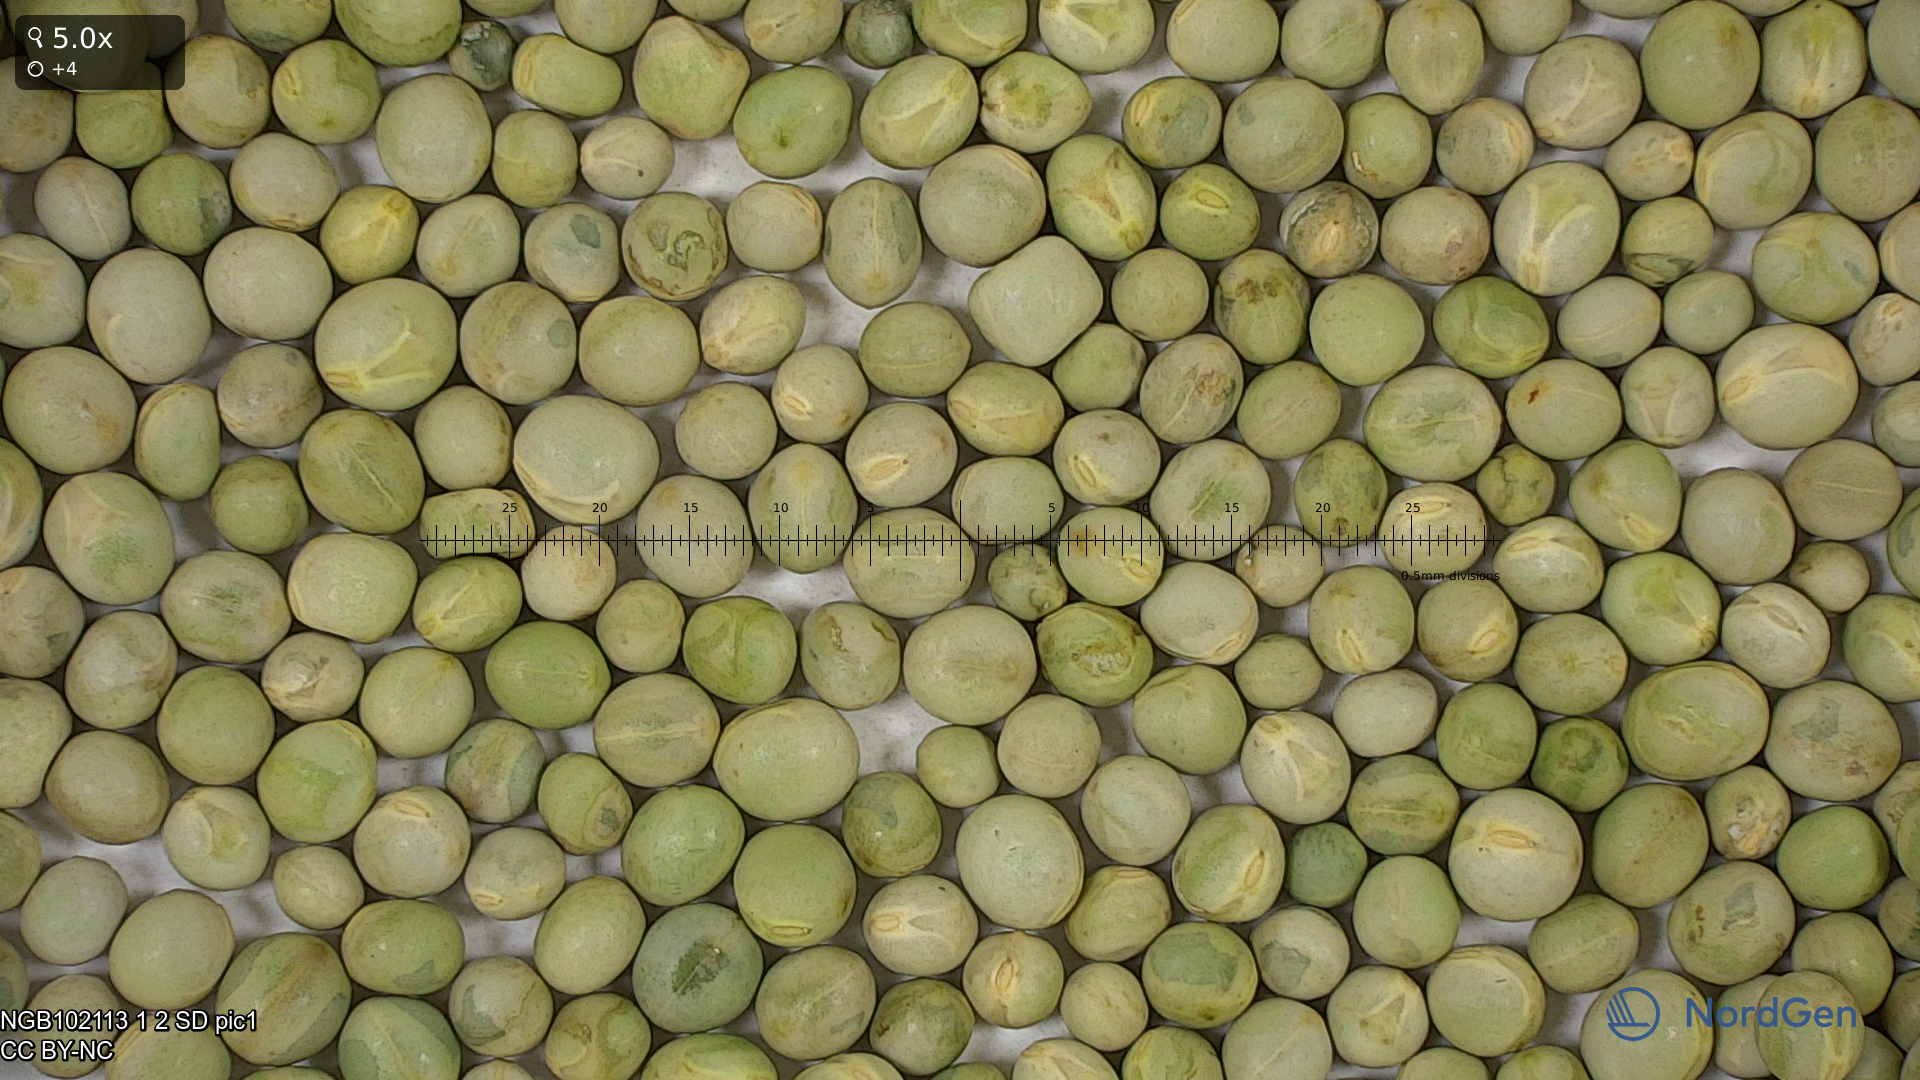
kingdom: Plantae
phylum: Tracheophyta
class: Magnoliopsida
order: Fabales
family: Fabaceae
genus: Lathyrus
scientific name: Lathyrus oleraceus
